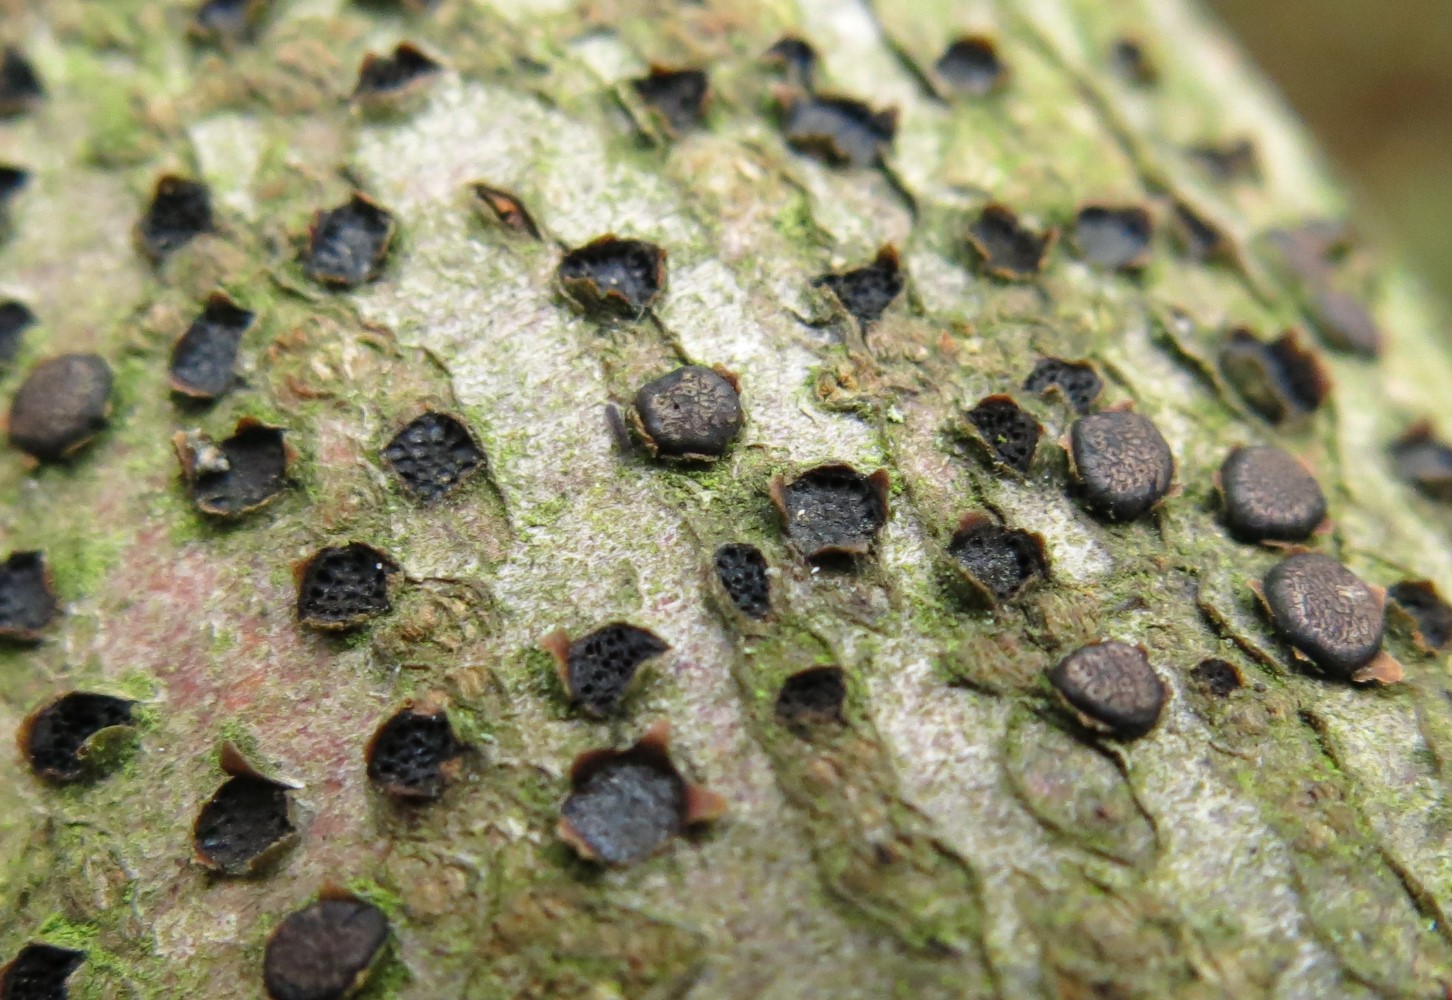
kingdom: Fungi
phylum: Ascomycota
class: Sordariomycetes
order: Xylariales
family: Diatrypaceae
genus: Diatrype
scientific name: Diatrype disciformis
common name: kant-kulskorpe
